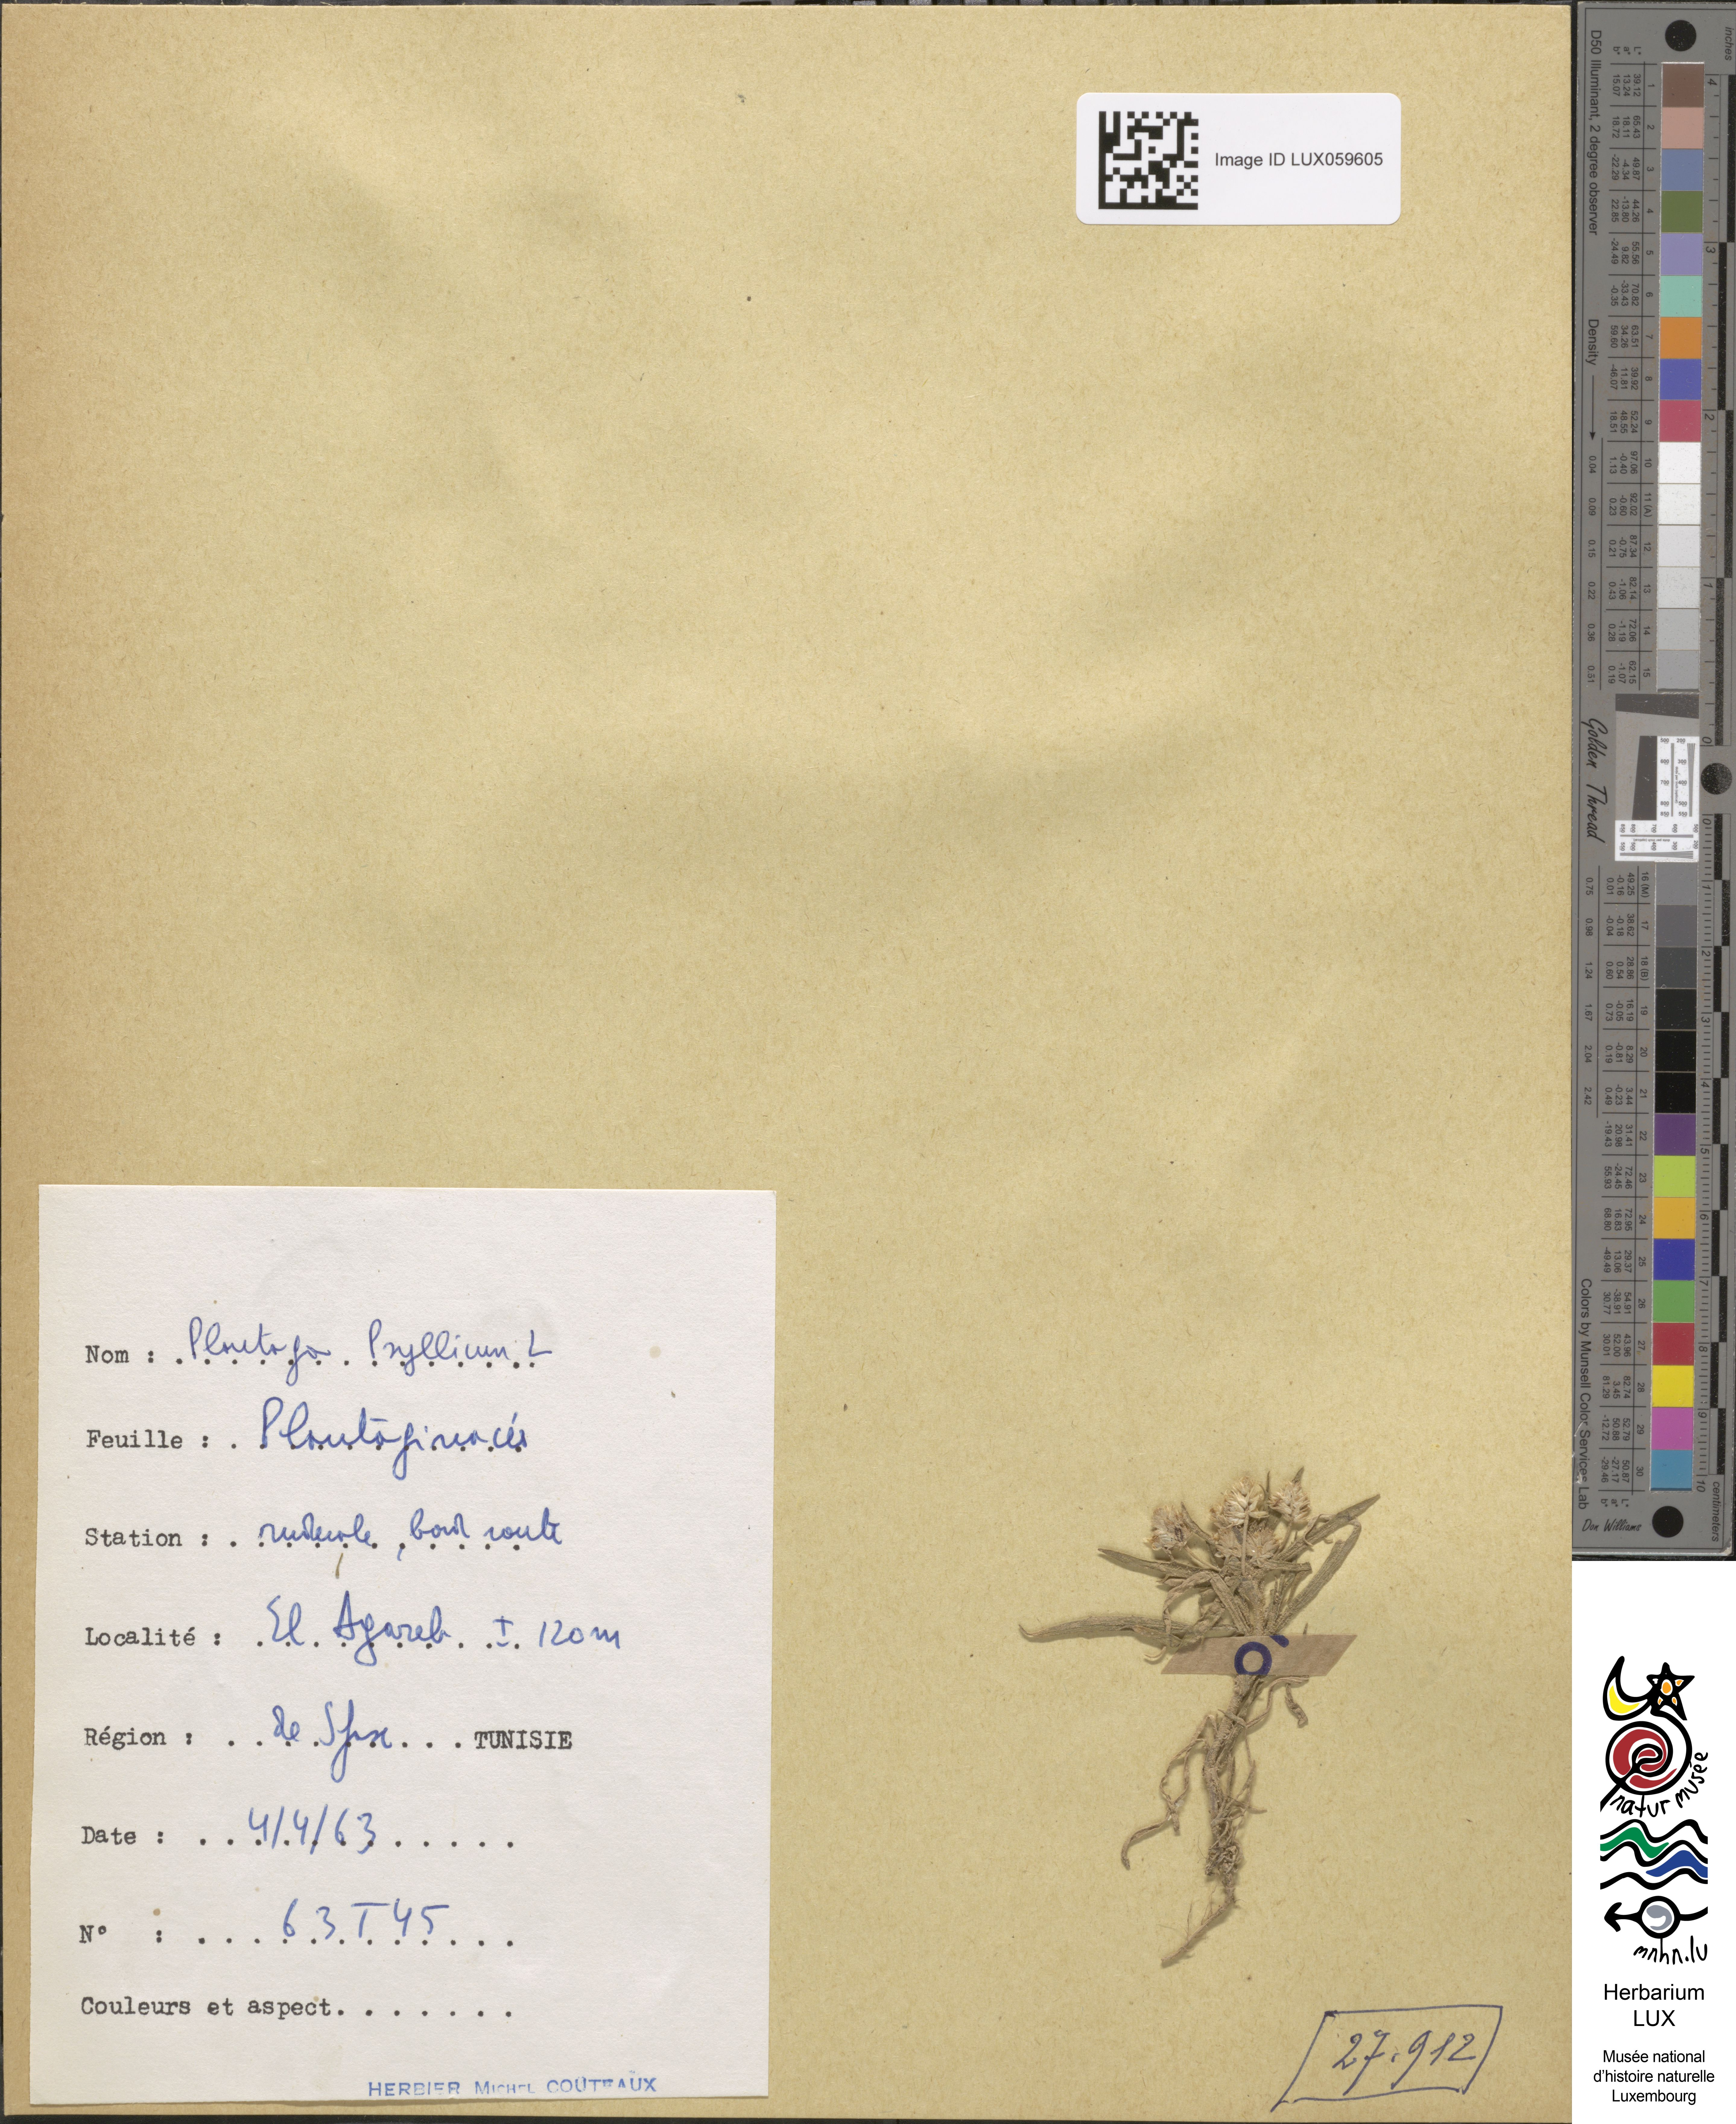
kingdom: Plantae
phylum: Tracheophyta
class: Magnoliopsida
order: Lamiales
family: Plantaginaceae
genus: Plantago
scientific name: Plantago afra
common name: Glandular plantain
